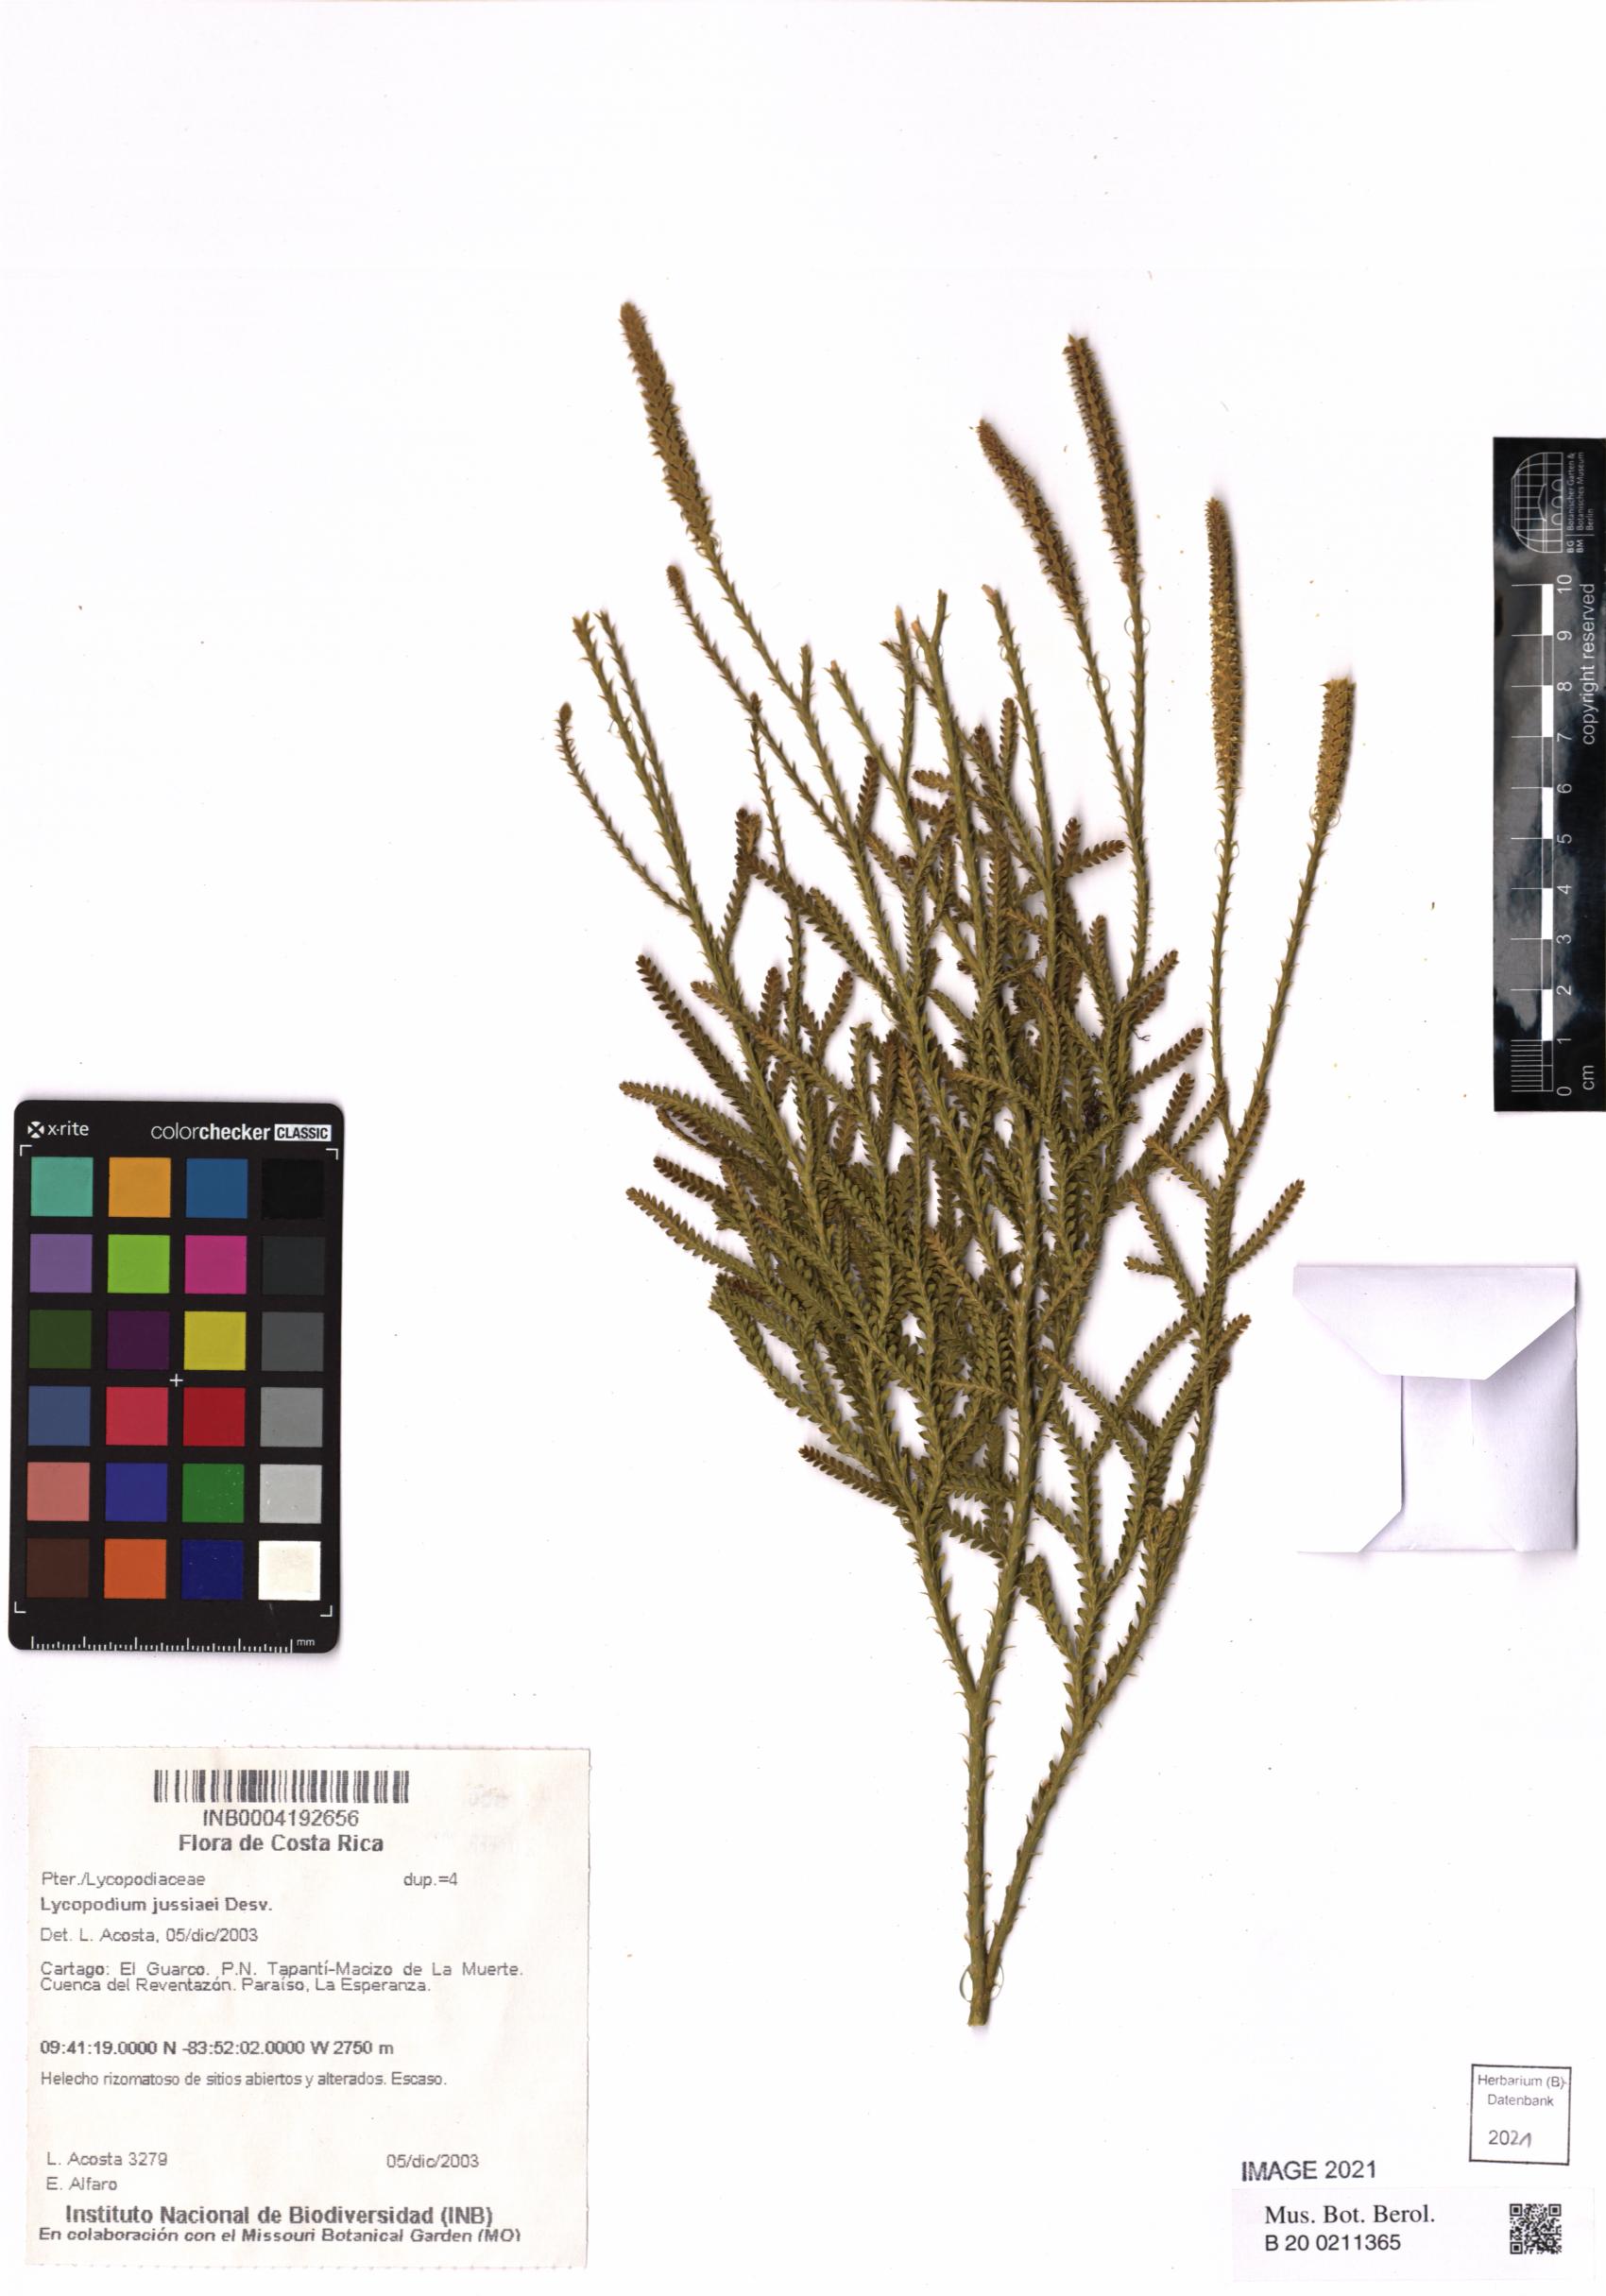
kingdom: Plantae
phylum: Tracheophyta
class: Lycopodiopsida
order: Lycopodiales
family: Lycopodiaceae
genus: Diphasium
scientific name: Diphasium jussiaei
